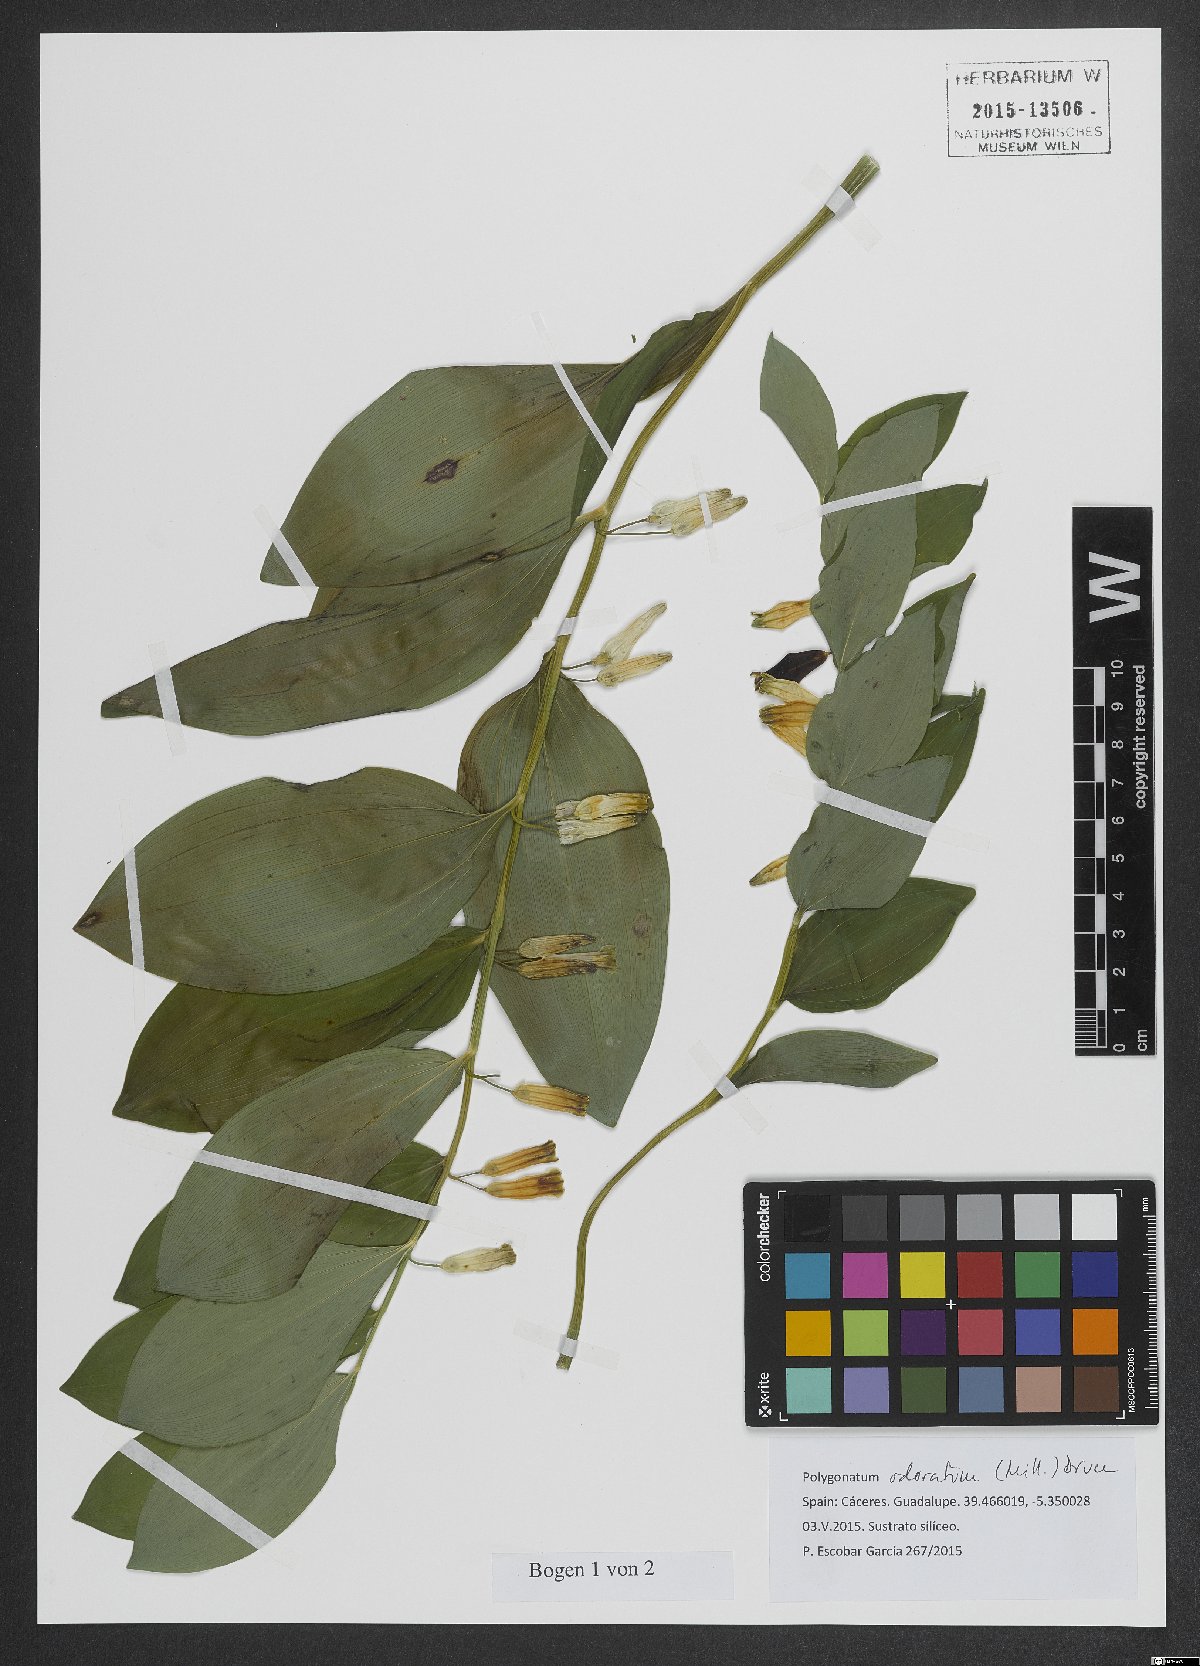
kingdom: Plantae
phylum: Tracheophyta
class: Liliopsida
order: Asparagales
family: Asparagaceae
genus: Polygonatum
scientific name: Polygonatum odoratum
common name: Angular solomon's-seal
